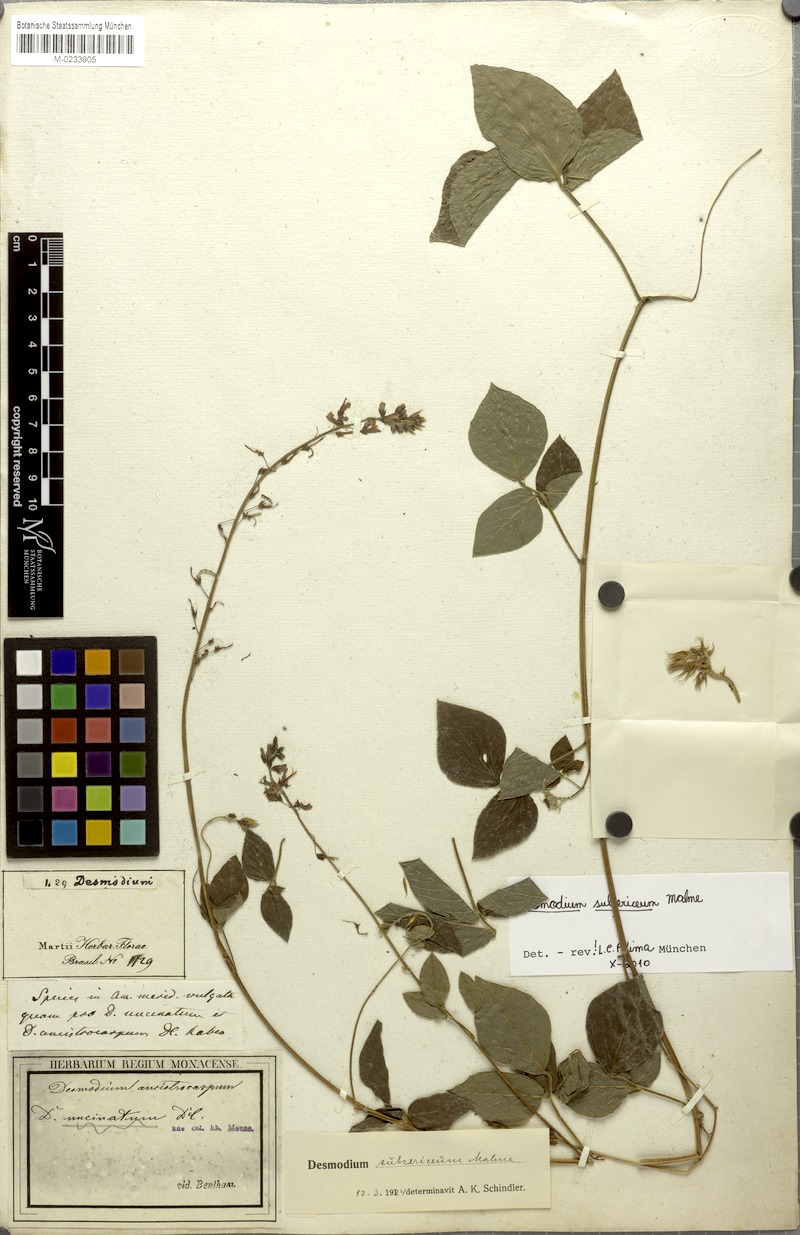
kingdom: Plantae
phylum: Tracheophyta
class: Magnoliopsida
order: Fabales
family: Fabaceae
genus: Desmodium
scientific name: Desmodium subsericeum
